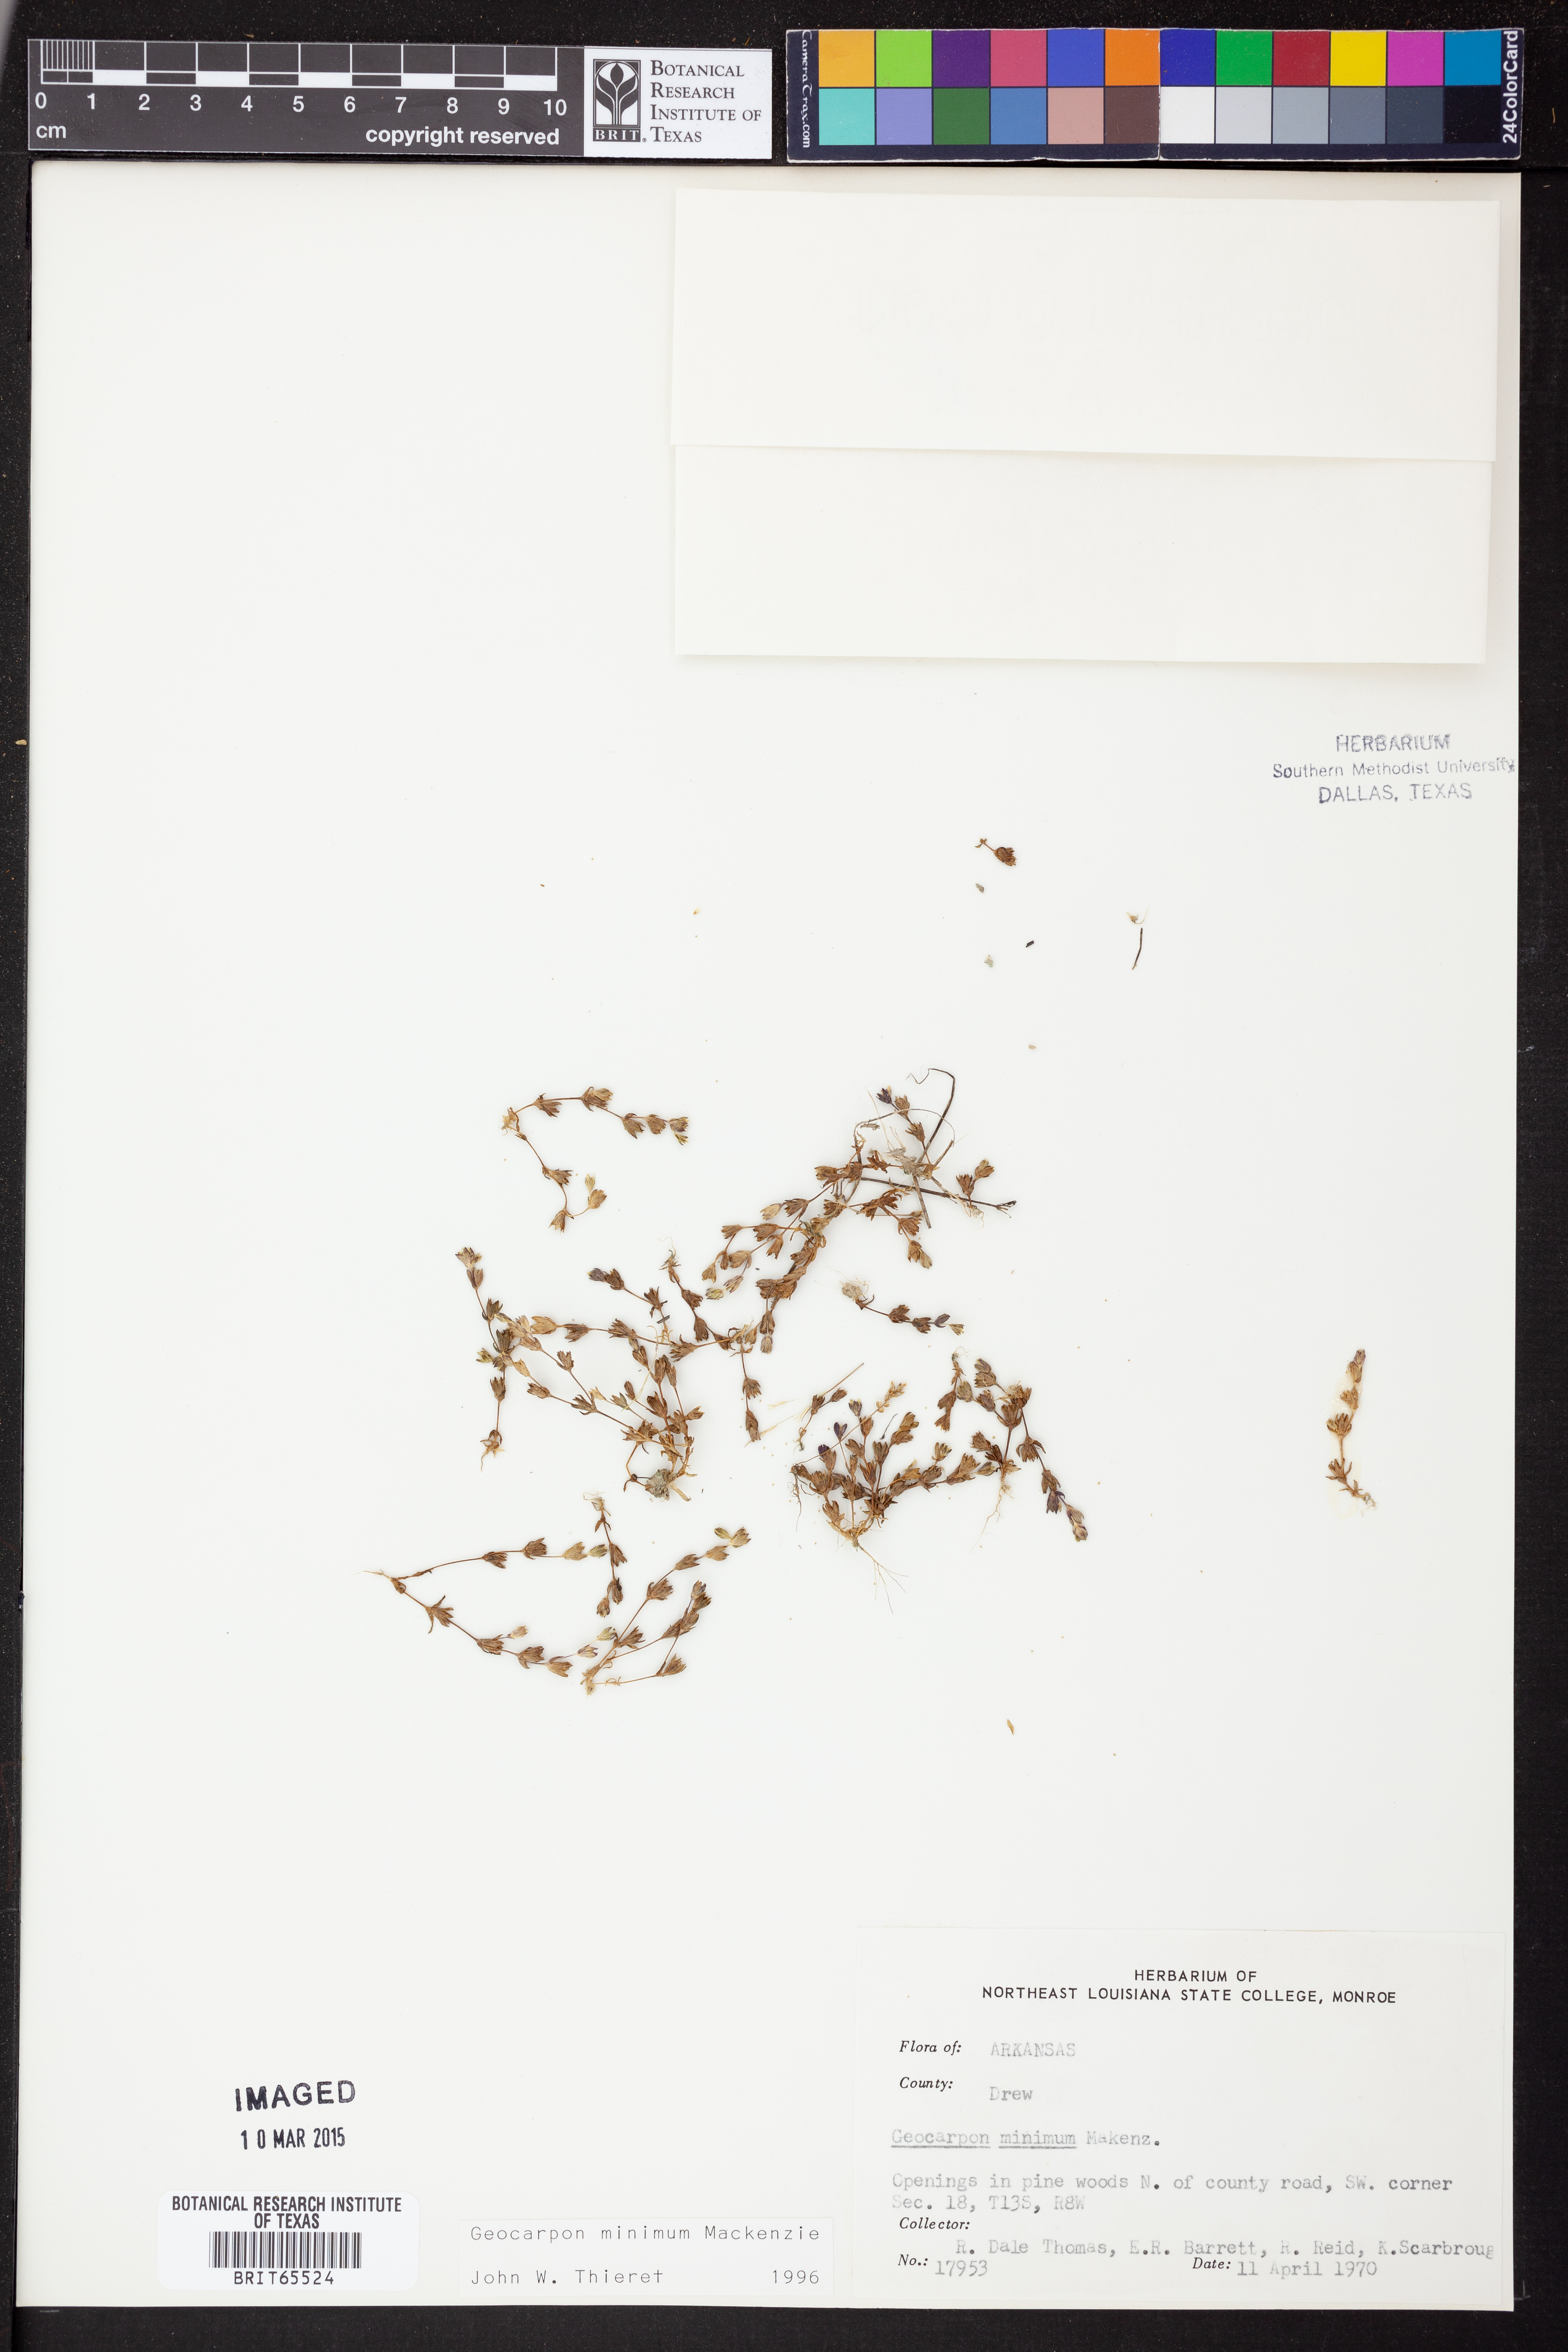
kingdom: Plantae
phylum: Tracheophyta
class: Magnoliopsida
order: Caryophyllales
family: Caryophyllaceae
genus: Geocarpon
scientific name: Geocarpon
